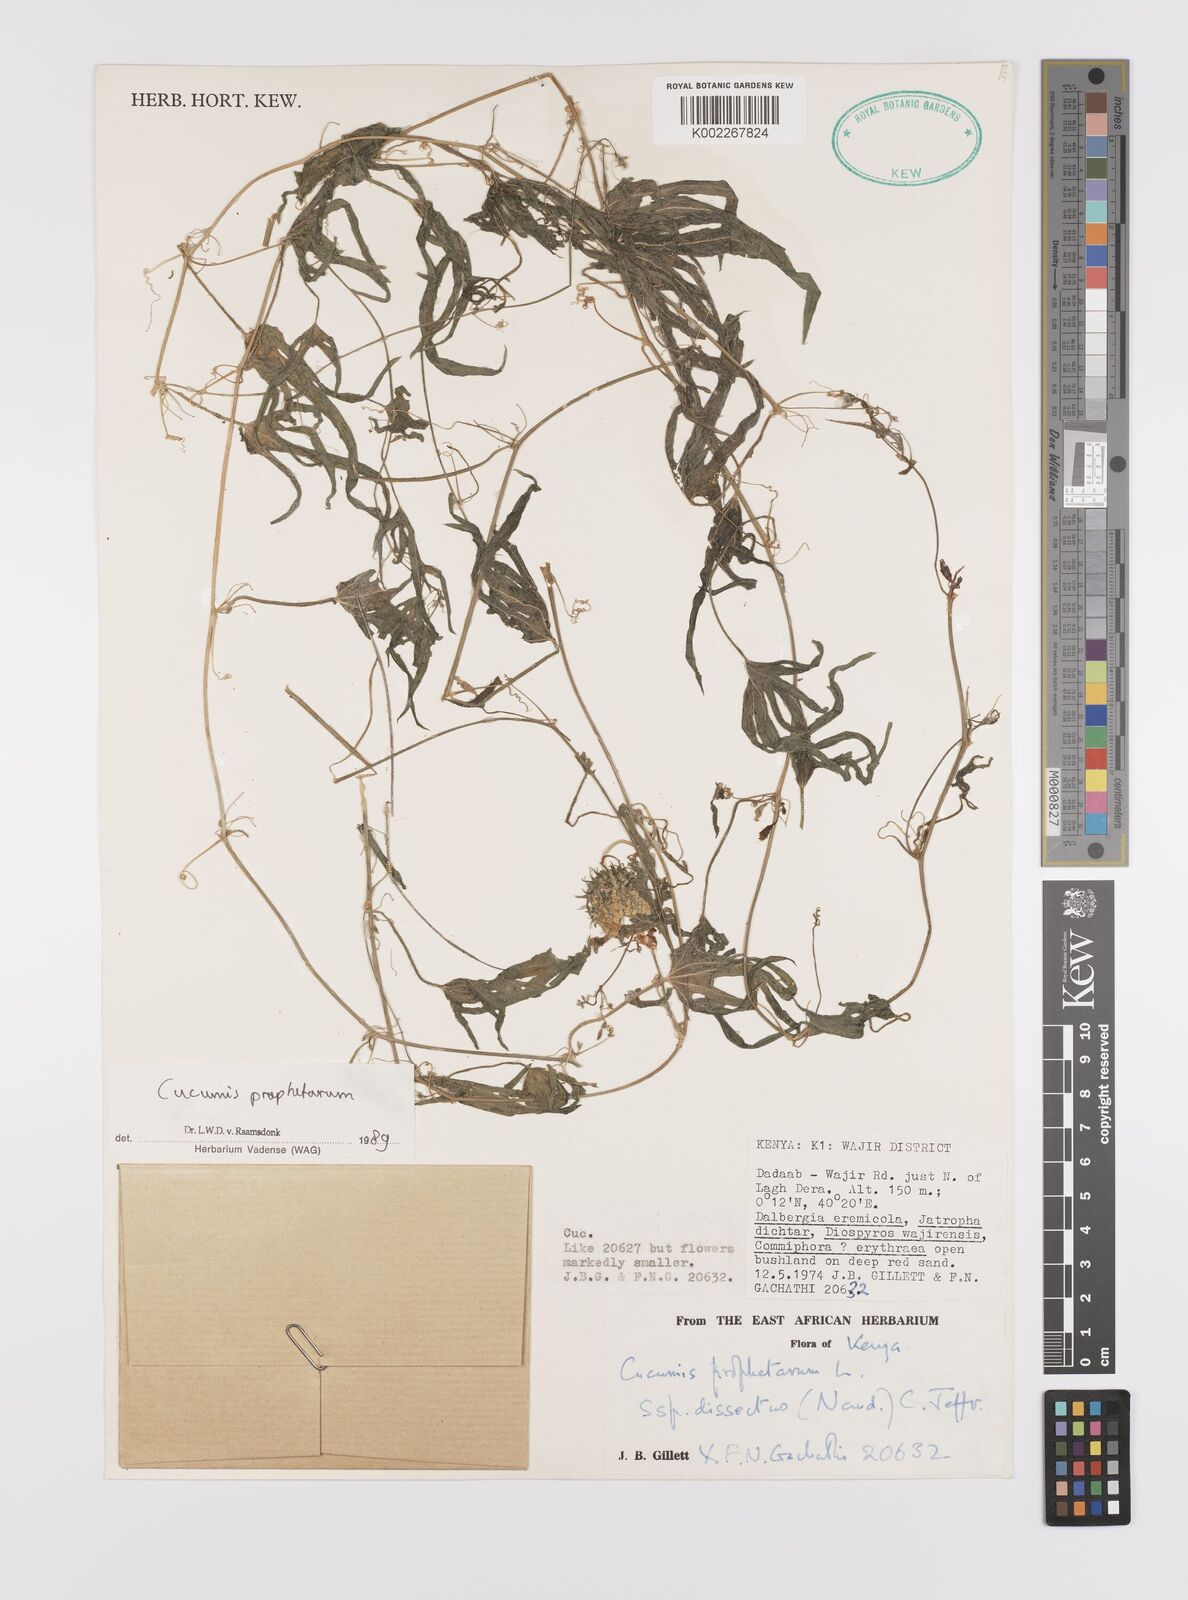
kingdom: Plantae
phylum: Tracheophyta
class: Magnoliopsida
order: Cucurbitales
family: Cucurbitaceae
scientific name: Cucurbitaceae
